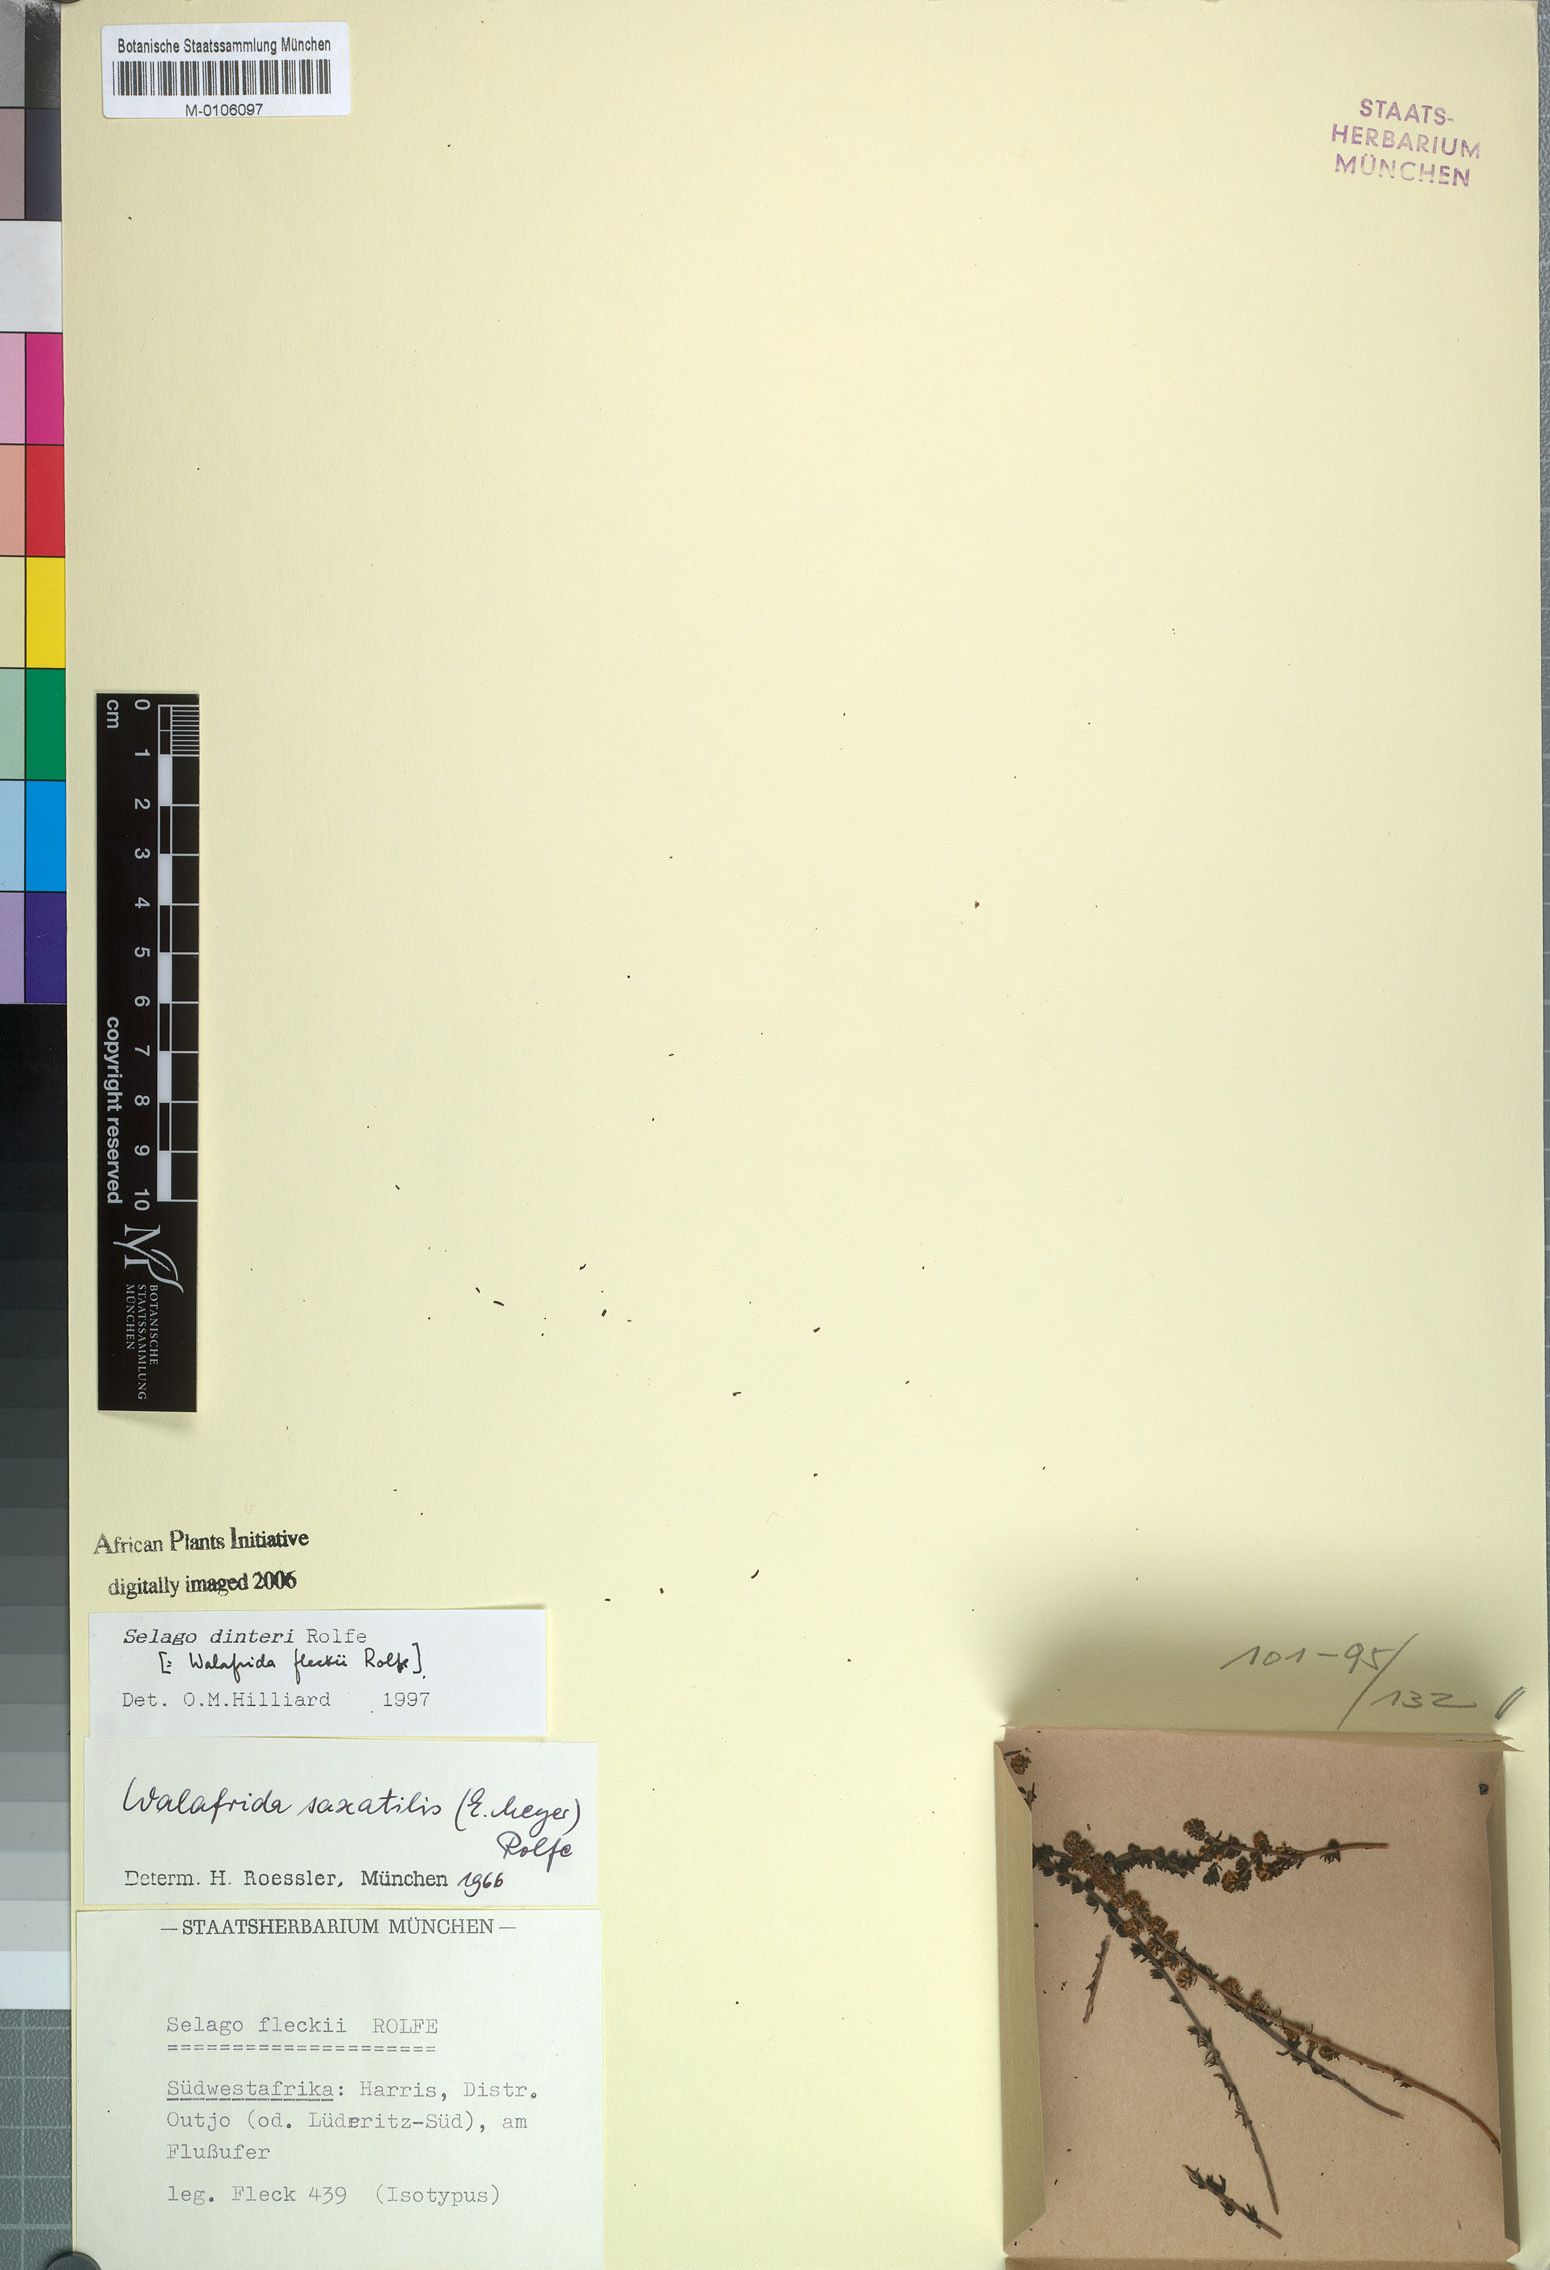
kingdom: Plantae
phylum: Tracheophyta
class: Magnoliopsida
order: Lamiales
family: Scrophulariaceae
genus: Selago
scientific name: Selago dinteri
